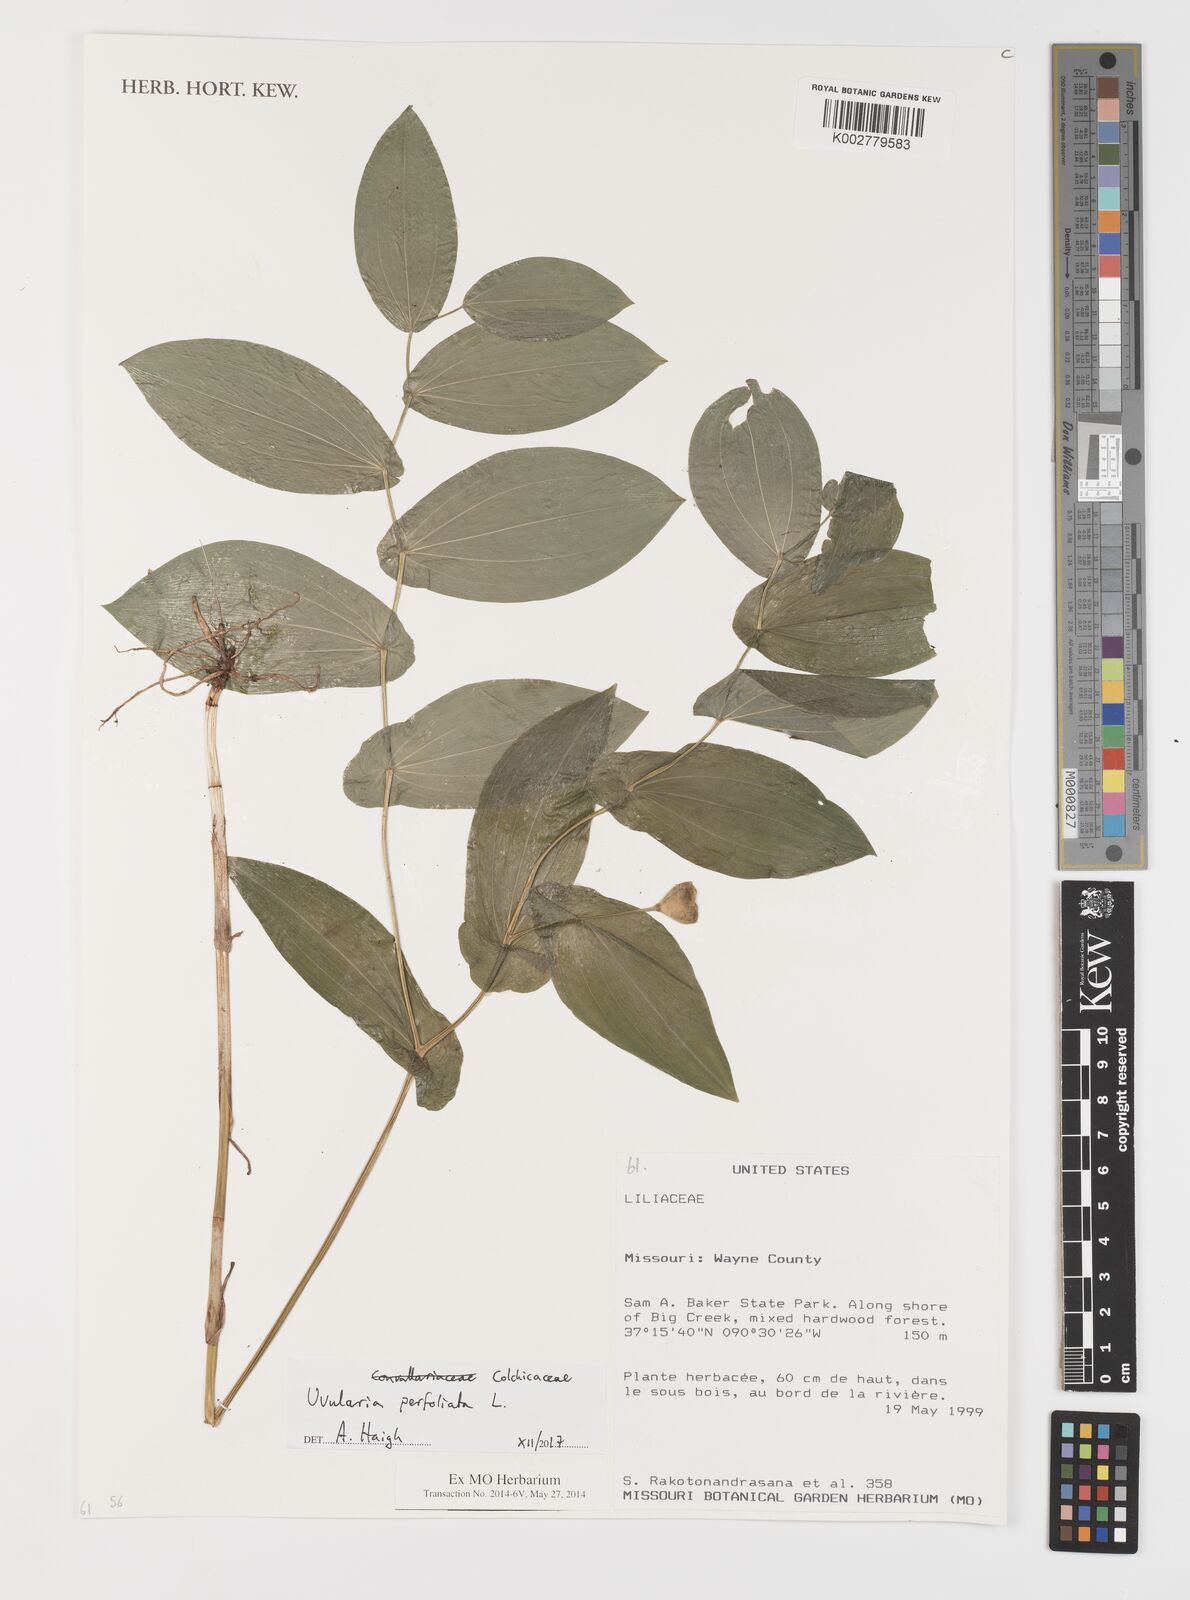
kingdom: Plantae
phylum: Tracheophyta
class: Liliopsida
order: Liliales
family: Colchicaceae
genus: Uvularia
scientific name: Uvularia perfoliata
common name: Perfoliate bellwort
